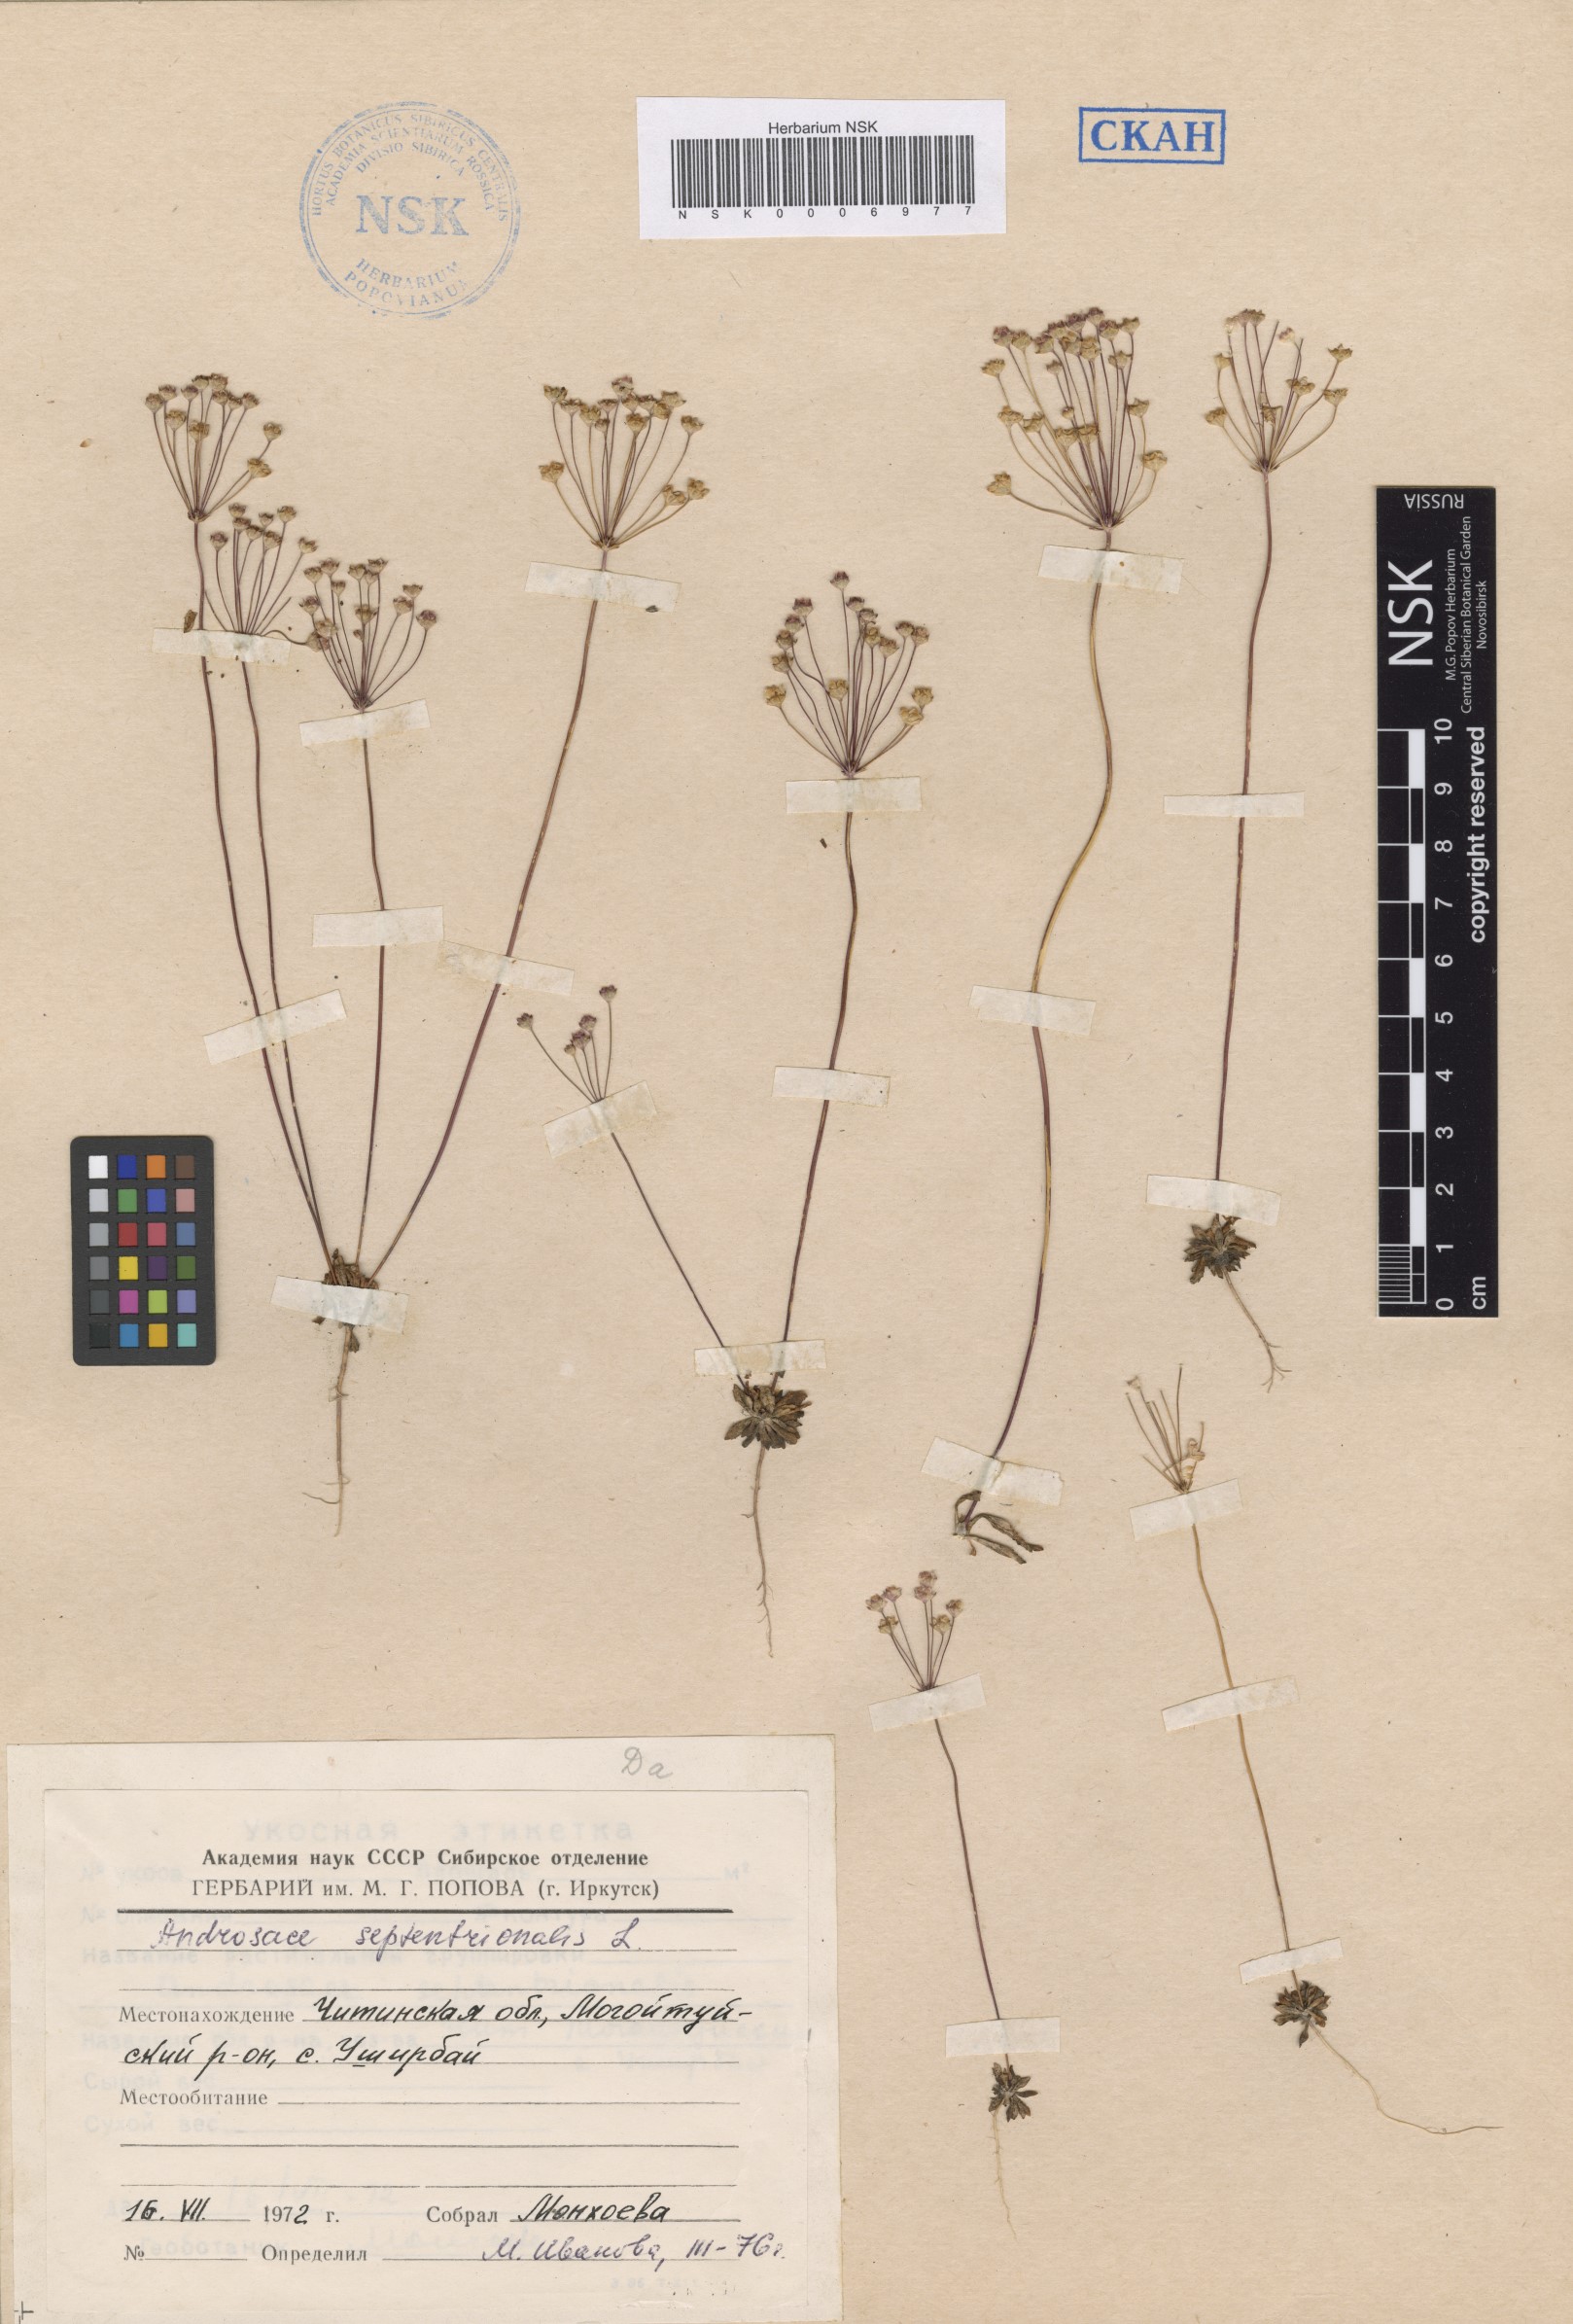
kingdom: Plantae
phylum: Tracheophyta
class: Magnoliopsida
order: Ericales
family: Primulaceae
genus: Androsace
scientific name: Androsace septentrionalis
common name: Hairy northern fairy-candelabra
